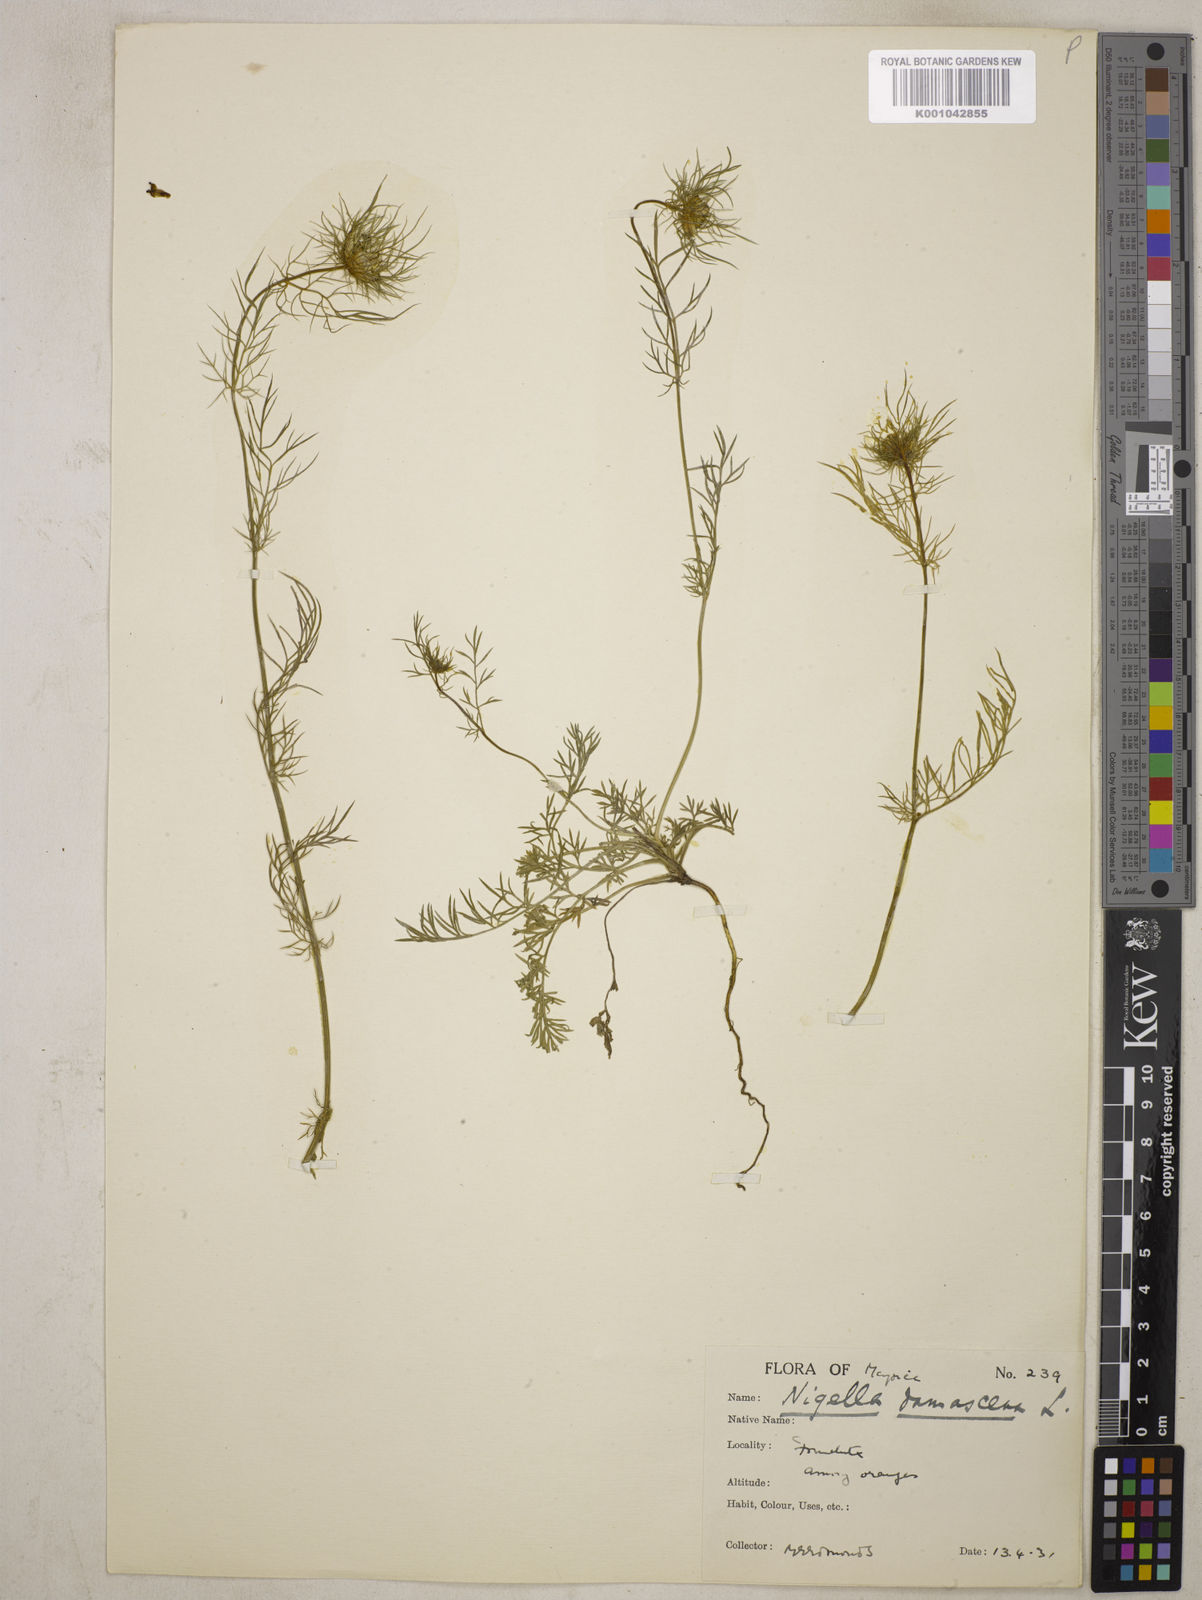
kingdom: Plantae
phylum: Tracheophyta
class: Magnoliopsida
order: Ranunculales
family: Ranunculaceae
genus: Nigella
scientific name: Nigella damascena
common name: Love-in-a-mist
